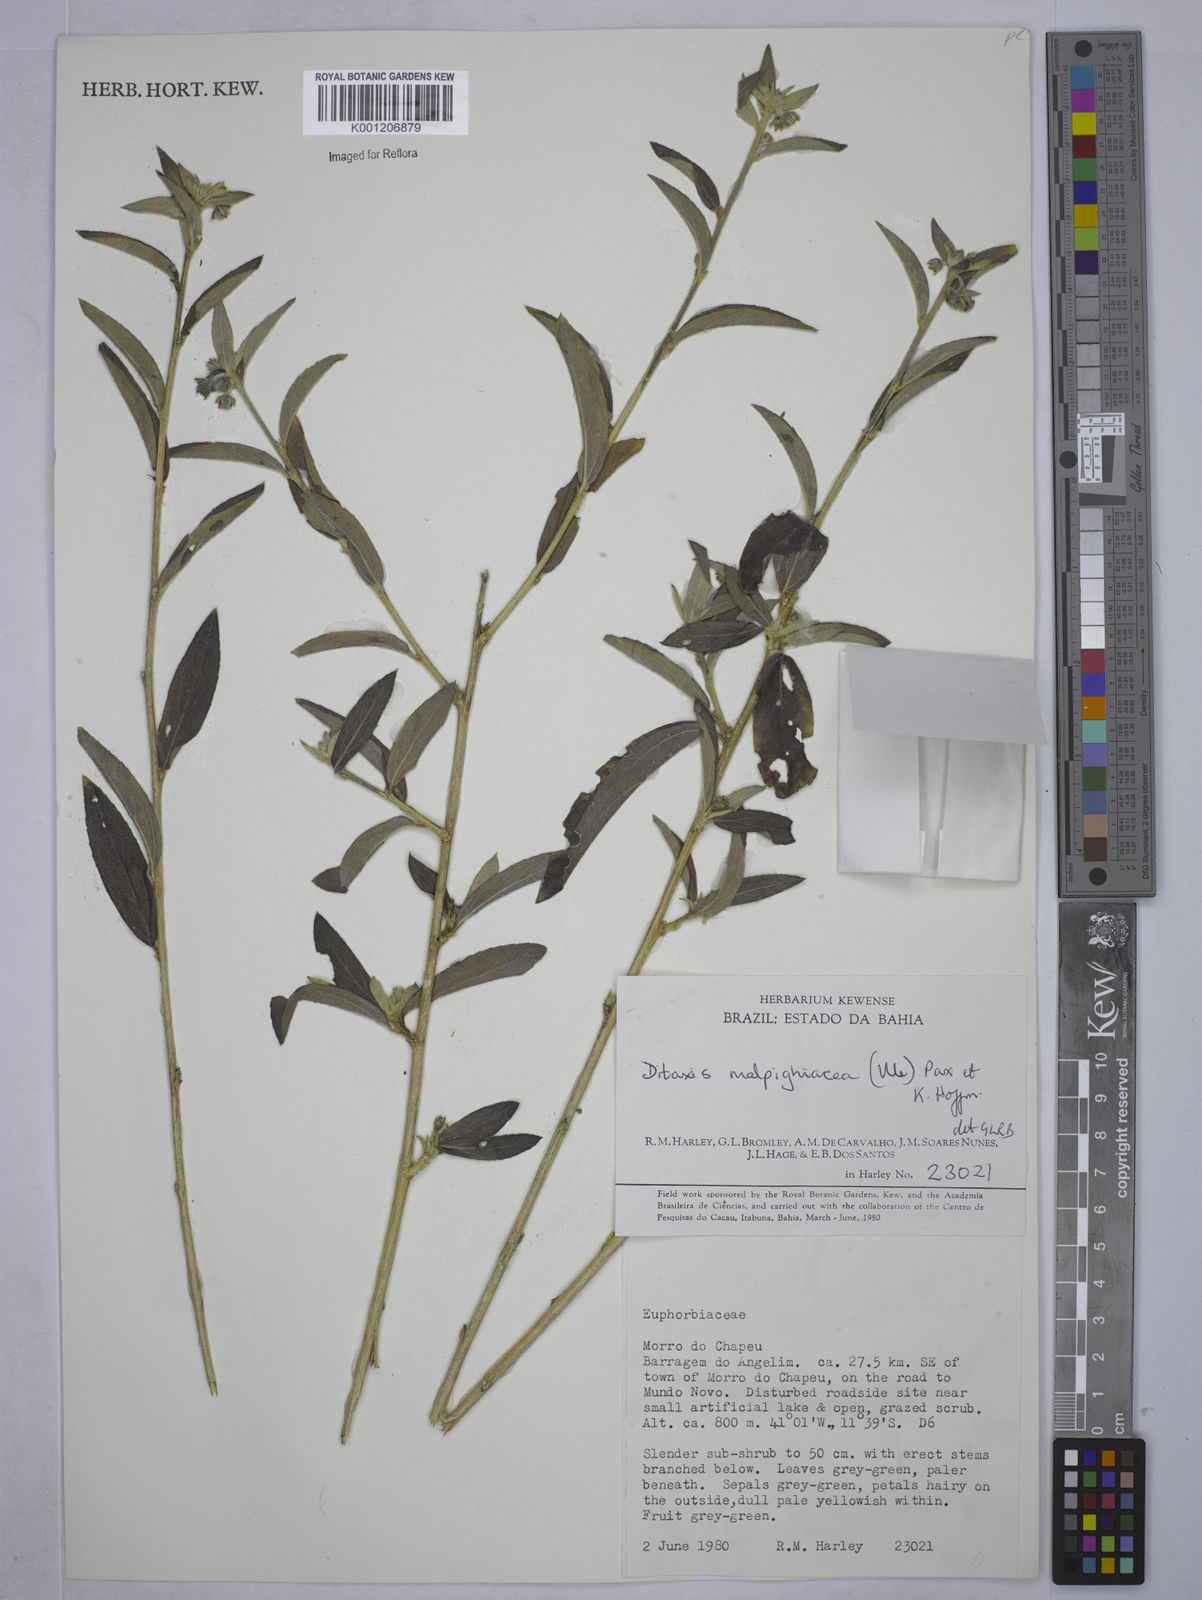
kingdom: Plantae
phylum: Tracheophyta
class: Magnoliopsida
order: Malpighiales
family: Euphorbiaceae
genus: Ditaxis
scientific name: Ditaxis malpighiacea
